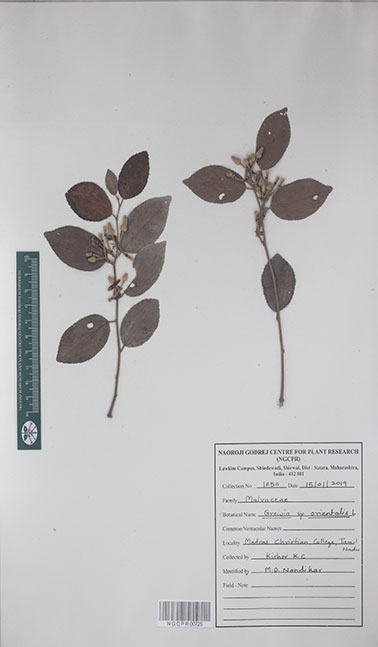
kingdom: Plantae
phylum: Tracheophyta
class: Magnoliopsida
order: Malvales
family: Malvaceae
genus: Grewia
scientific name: Grewia orientalis
